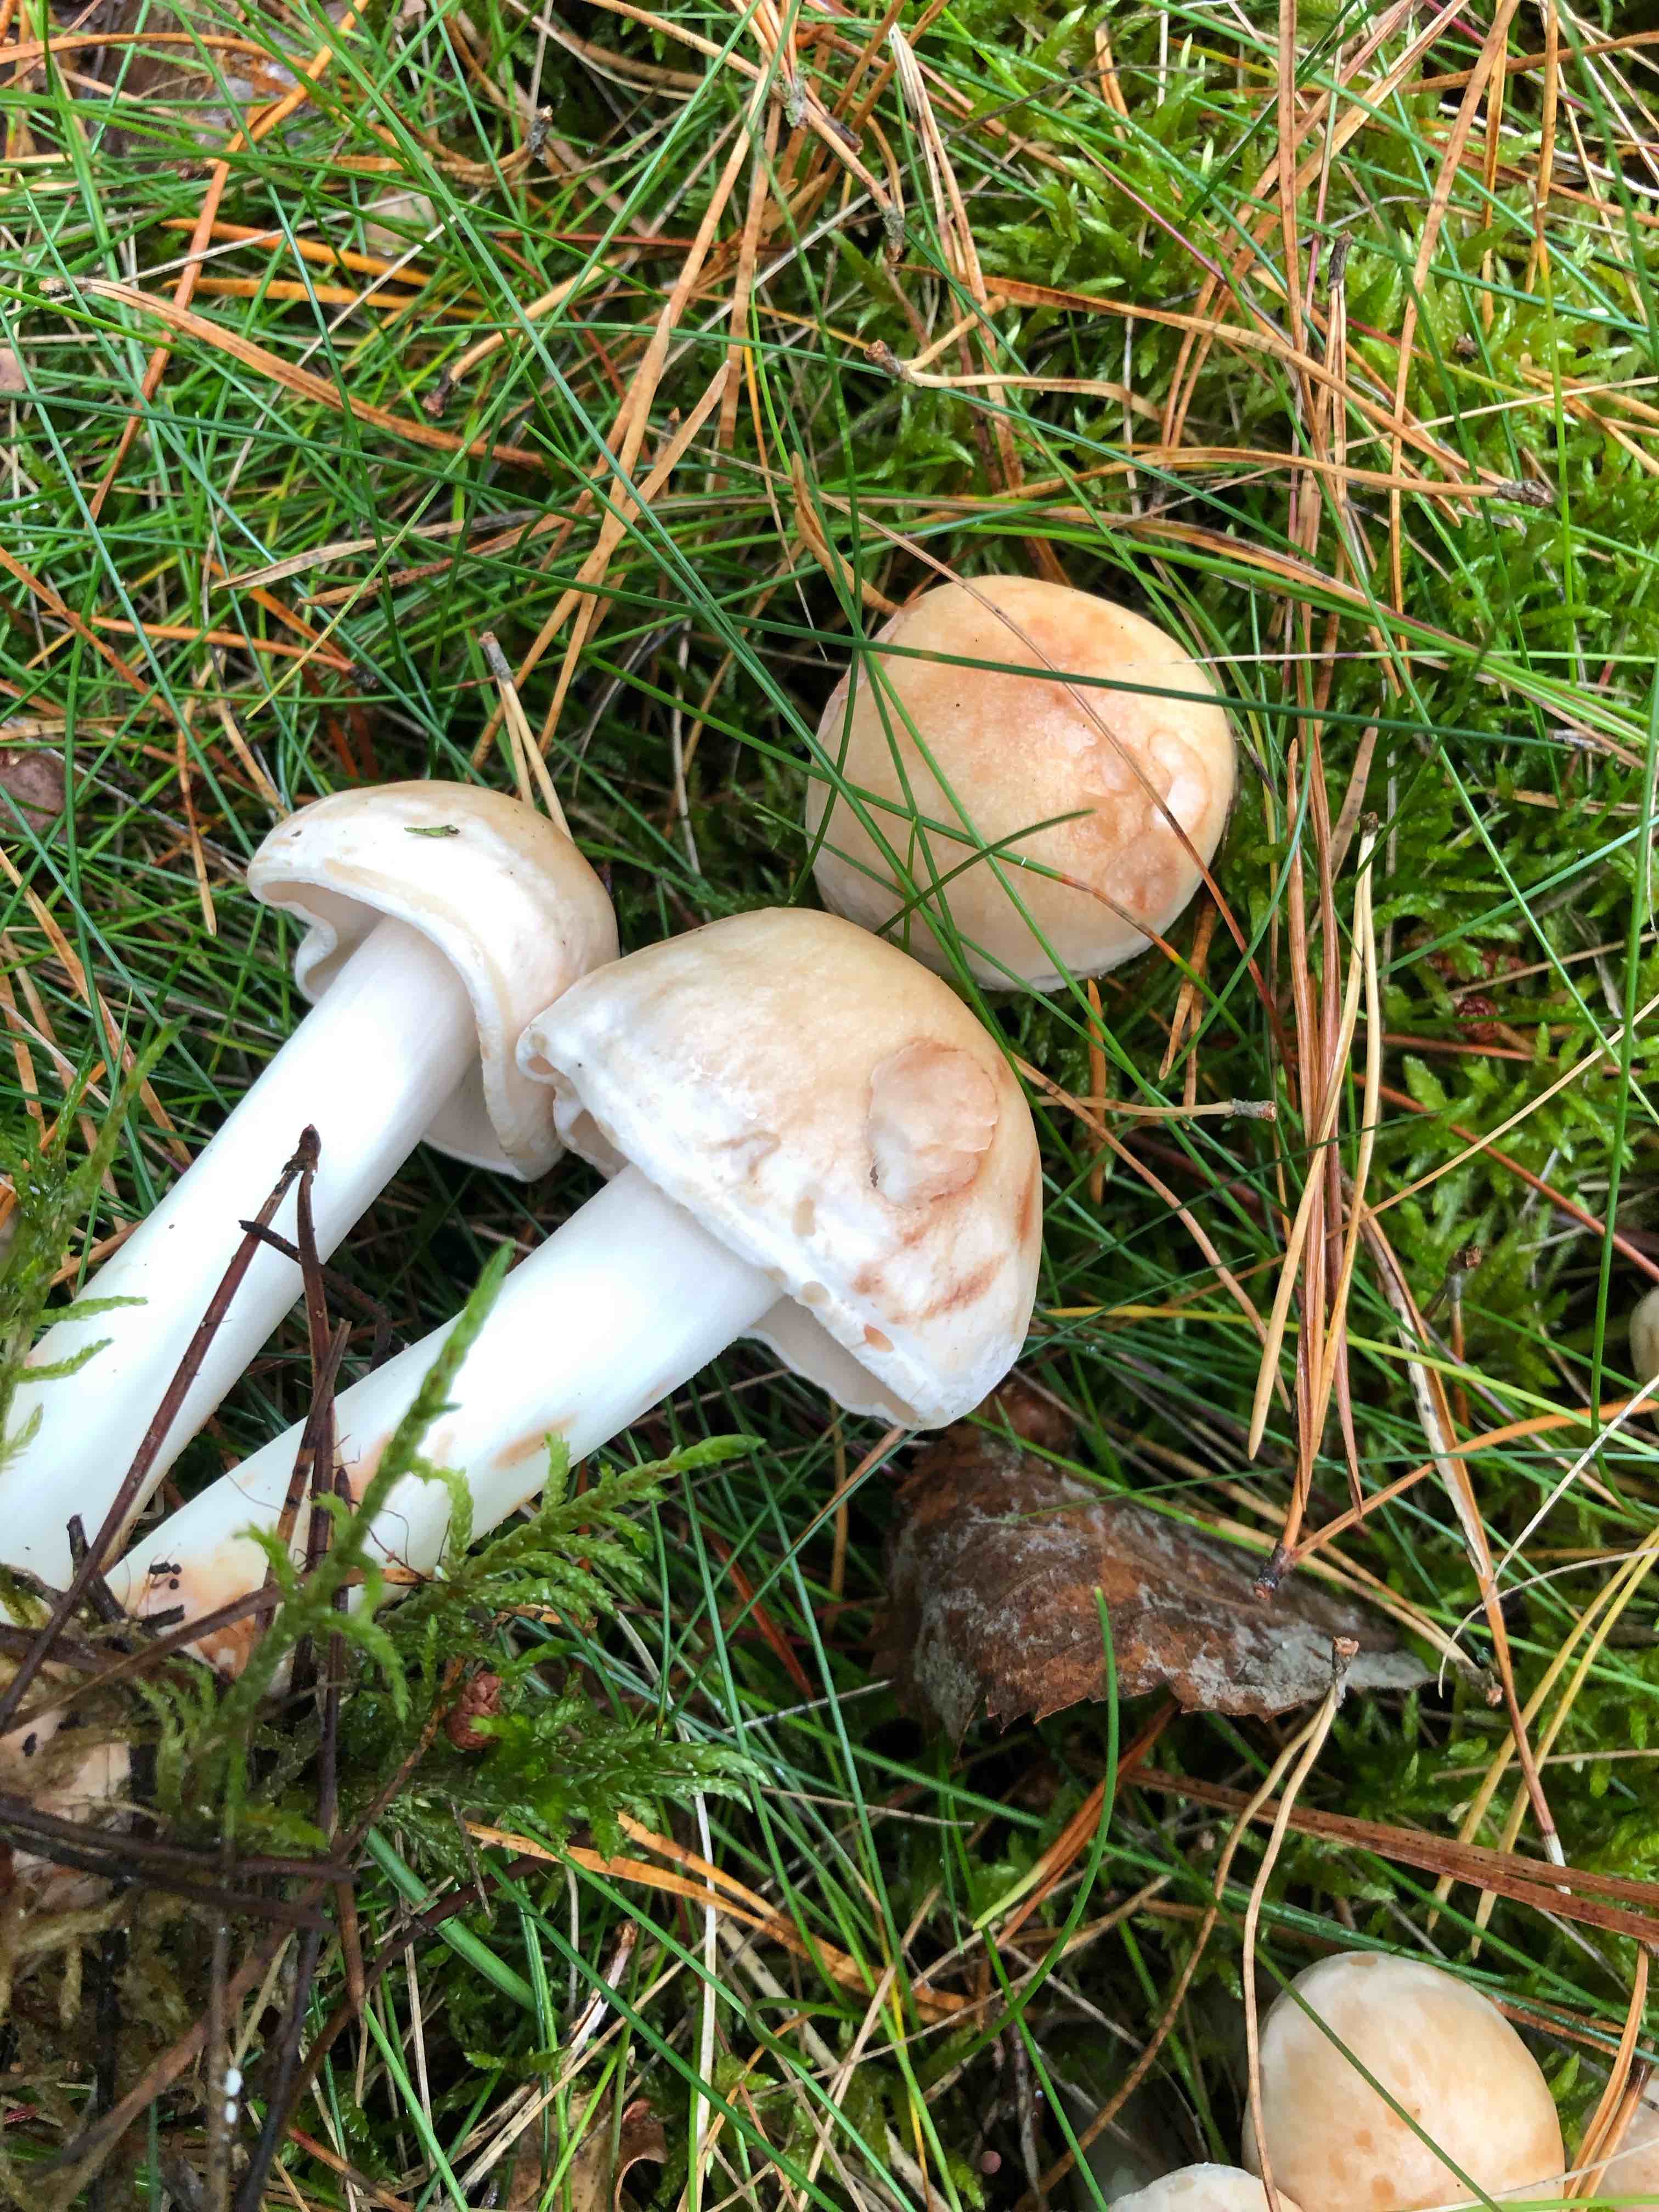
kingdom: Fungi
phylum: Basidiomycota
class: Agaricomycetes
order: Agaricales
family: Omphalotaceae
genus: Rhodocollybia
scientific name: Rhodocollybia maculata
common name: plettet fladhat
